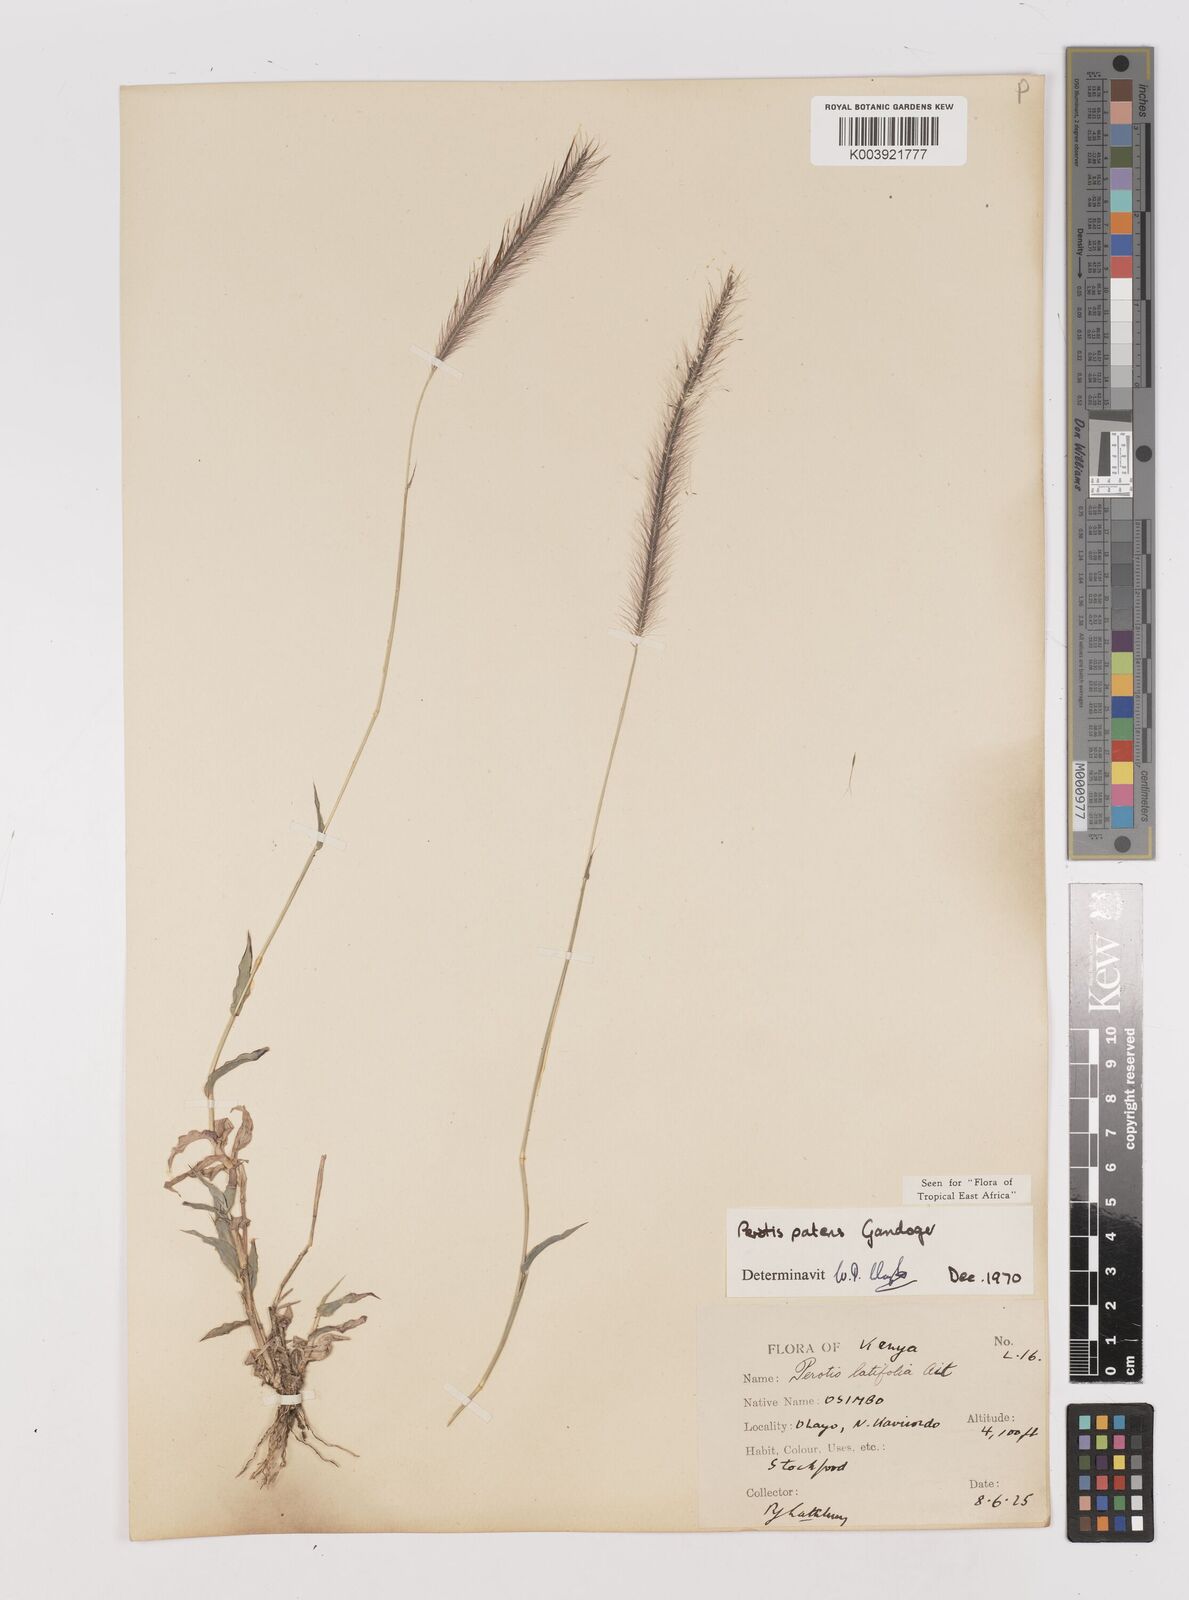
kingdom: Plantae
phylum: Tracheophyta
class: Liliopsida
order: Poales
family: Poaceae
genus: Perotis
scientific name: Perotis patens
